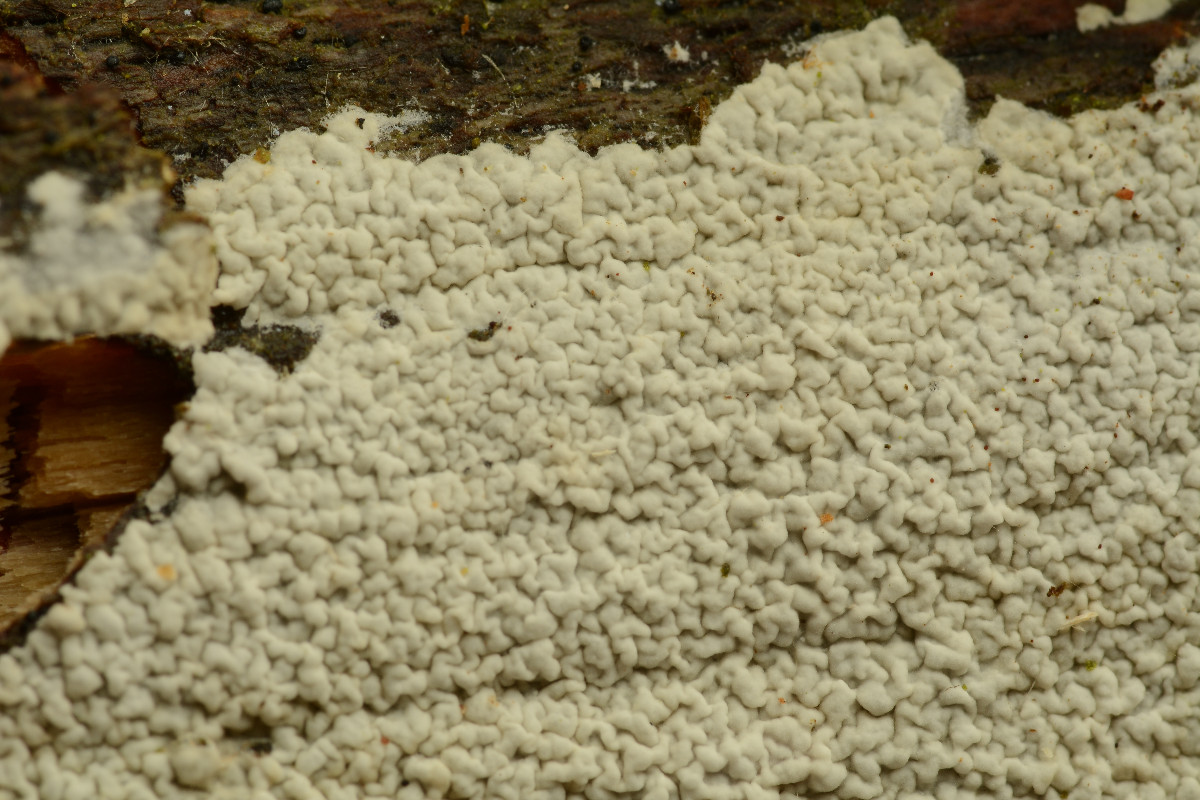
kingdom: Fungi
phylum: Basidiomycota
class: Agaricomycetes
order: Atheliales
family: Atheliaceae
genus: Athelia
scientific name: Athelia epiphylla
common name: almindelig barkhinde
